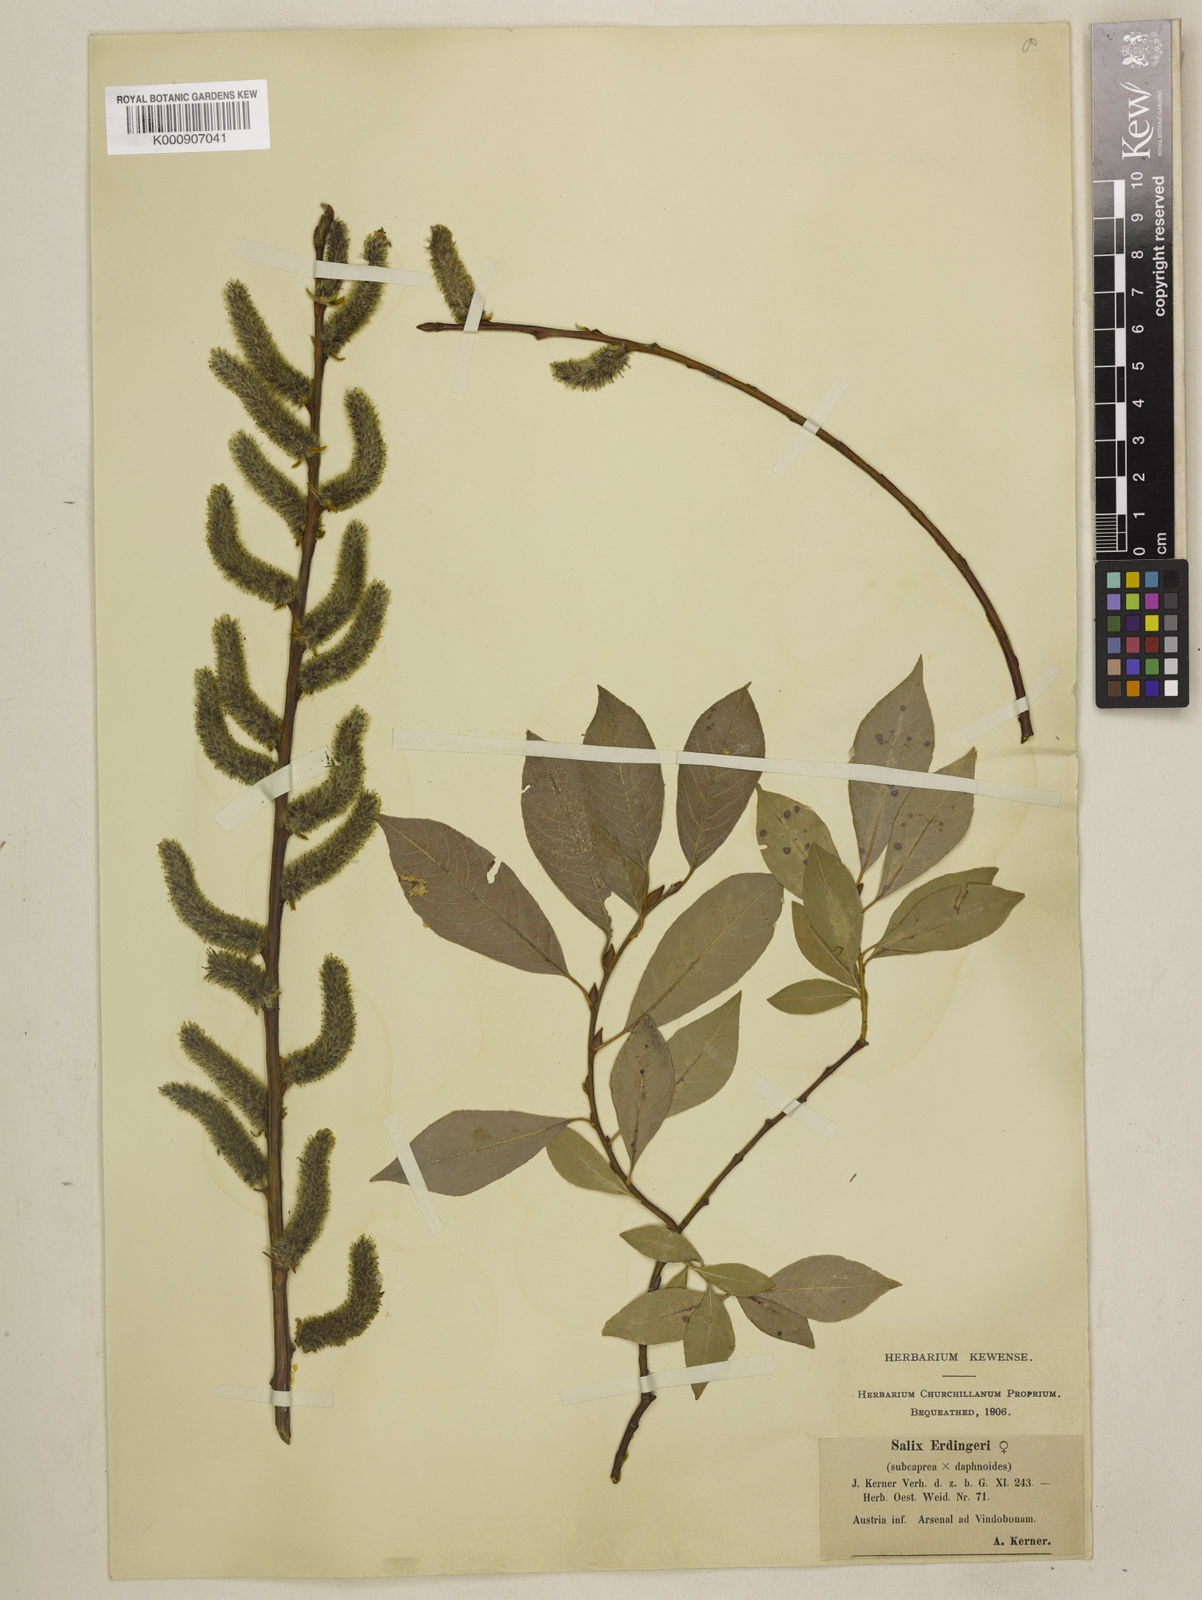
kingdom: Plantae
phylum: Tracheophyta
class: Magnoliopsida
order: Malpighiales
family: Salicaceae
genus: Salix
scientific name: Salix caprea
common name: Goat willow
